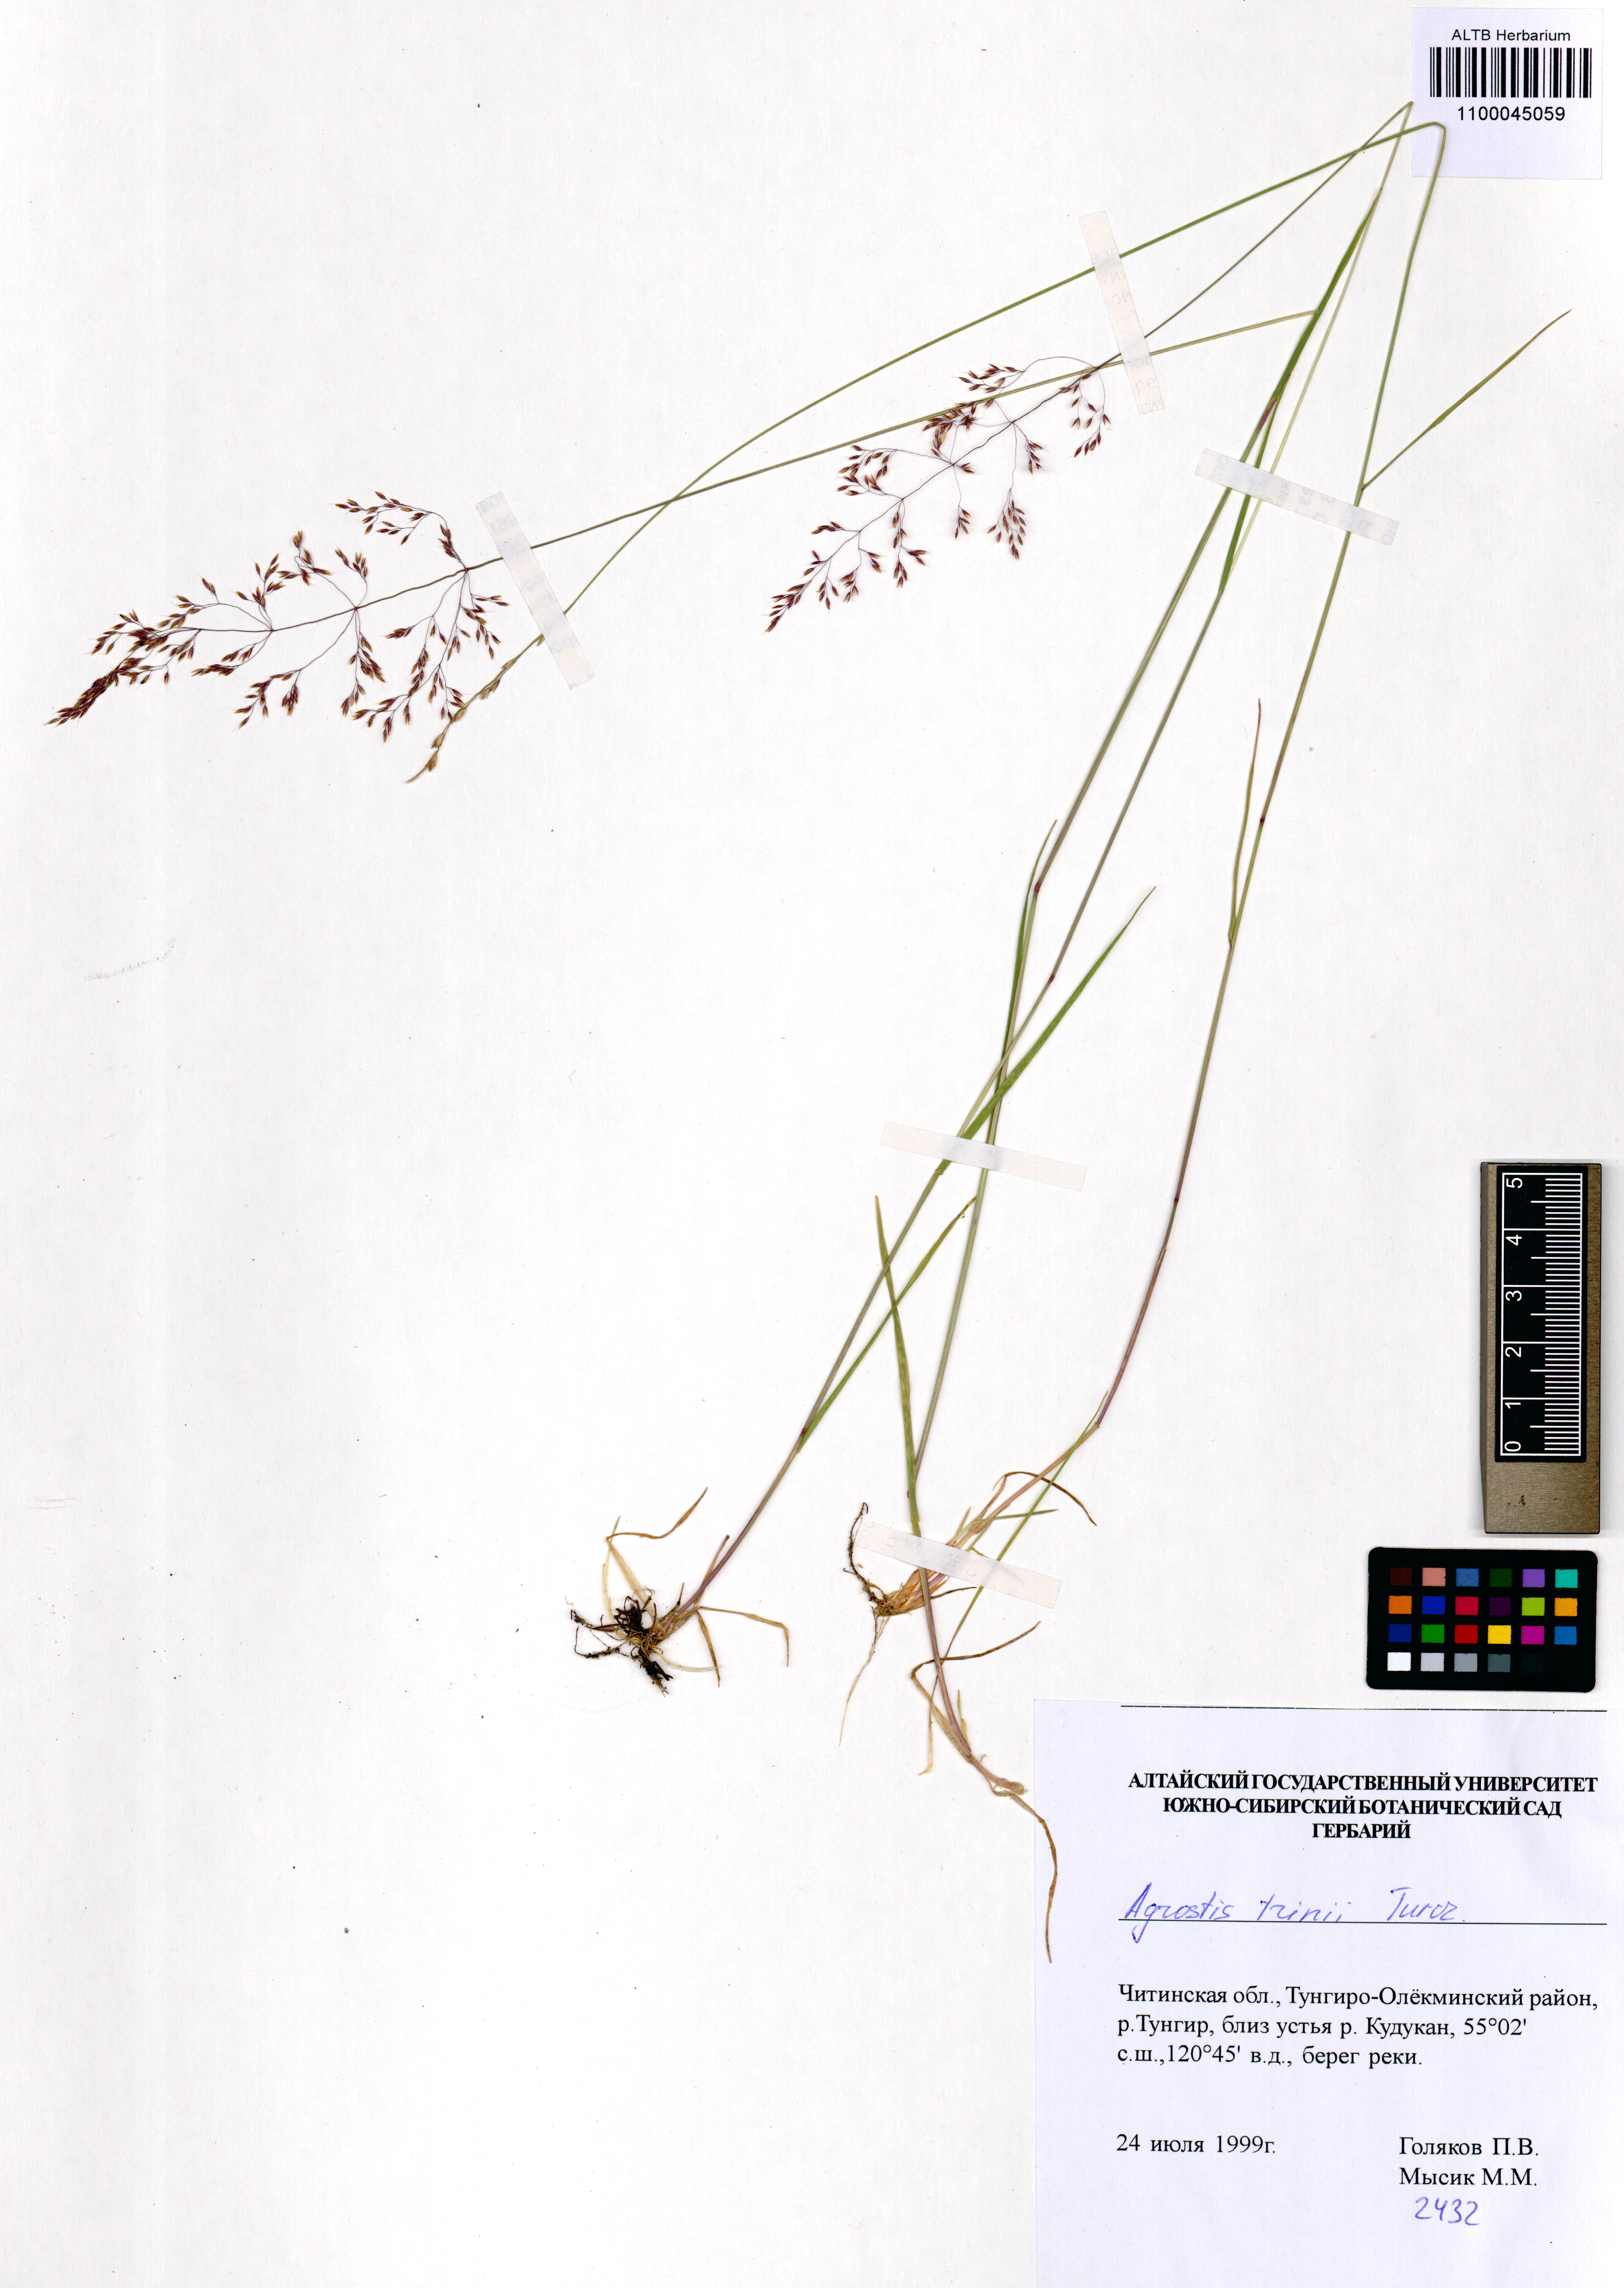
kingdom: Plantae
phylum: Tracheophyta
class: Liliopsida
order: Poales
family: Poaceae
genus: Agrostis
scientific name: Agrostis vinealis
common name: Brown bent
